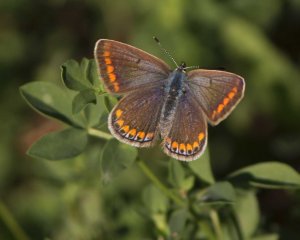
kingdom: Animalia
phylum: Arthropoda
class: Insecta
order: Lepidoptera
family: Lycaenidae
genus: Polyommatus
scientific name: Polyommatus icarus
